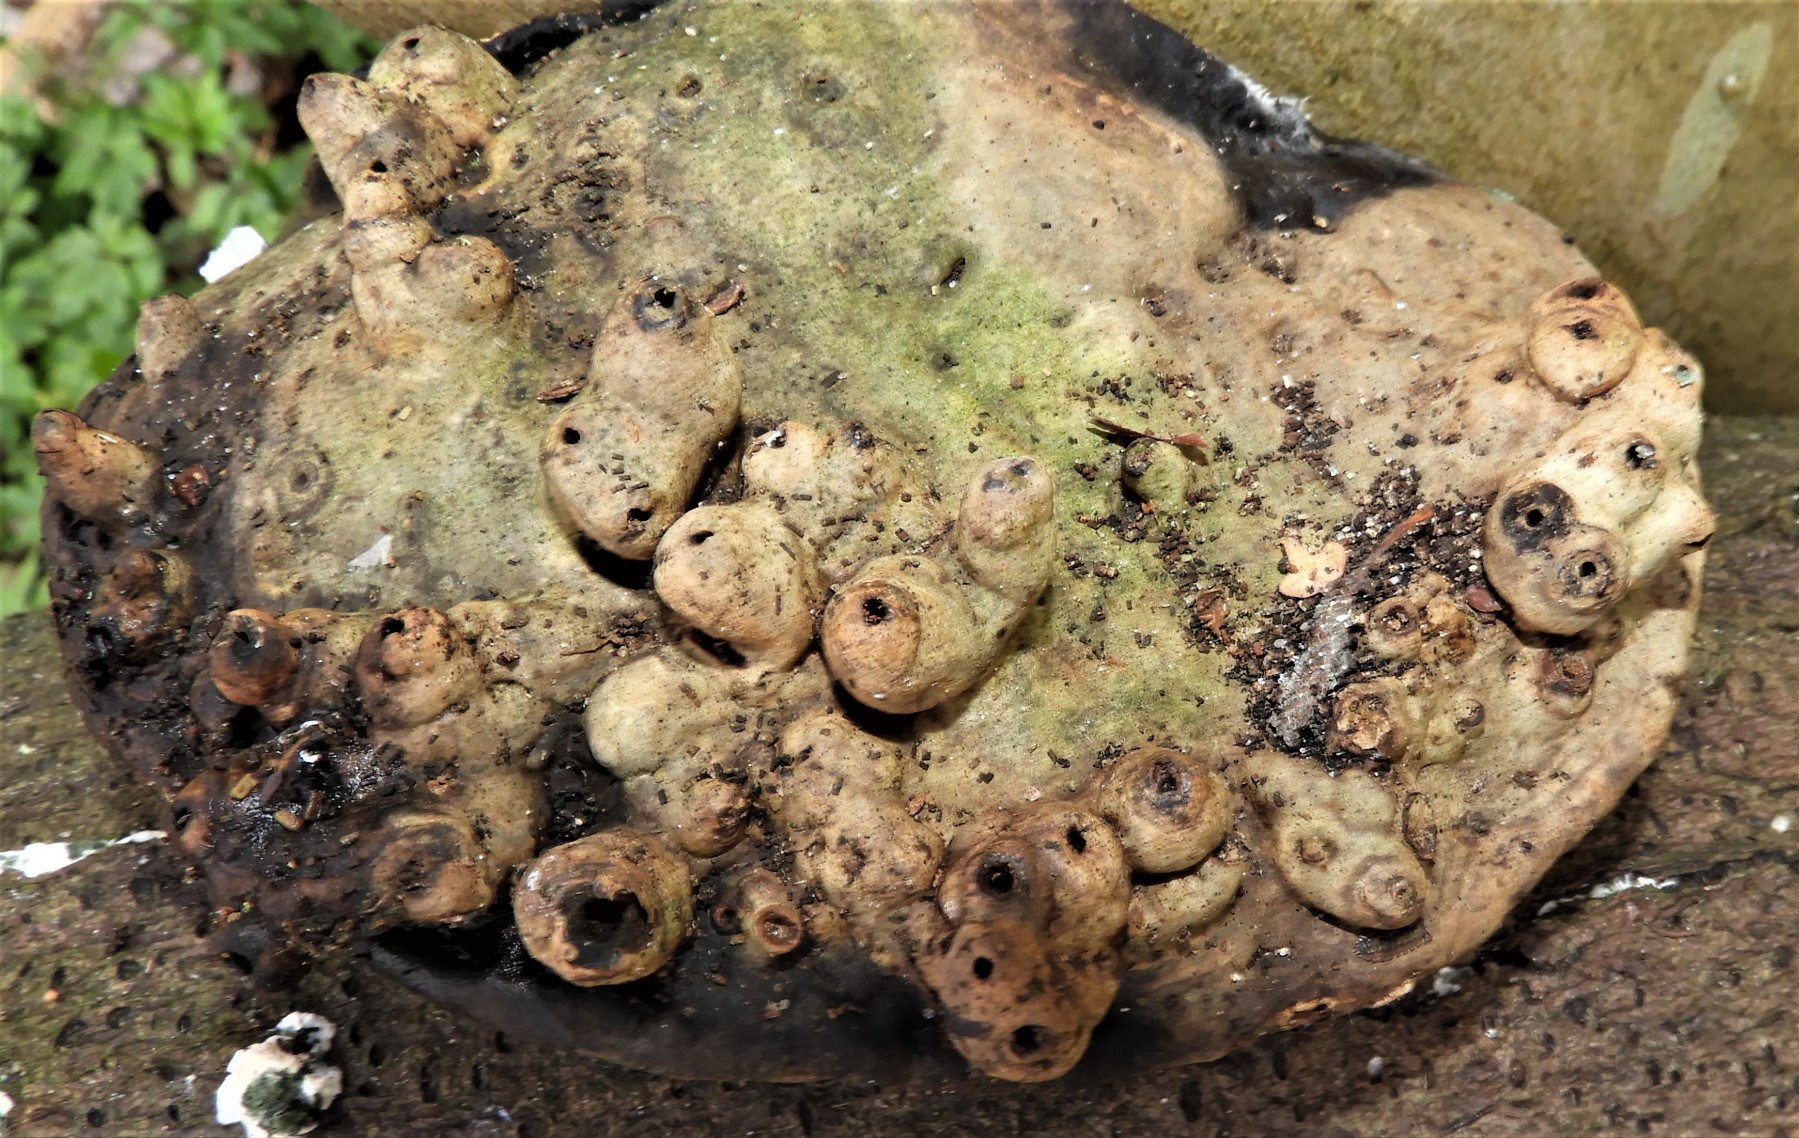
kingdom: Fungi
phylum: Basidiomycota
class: Agaricomycetes
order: Polyporales
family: Polyporaceae
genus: Ganoderma
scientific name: Ganoderma applanatum
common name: flad lakporesvamp
